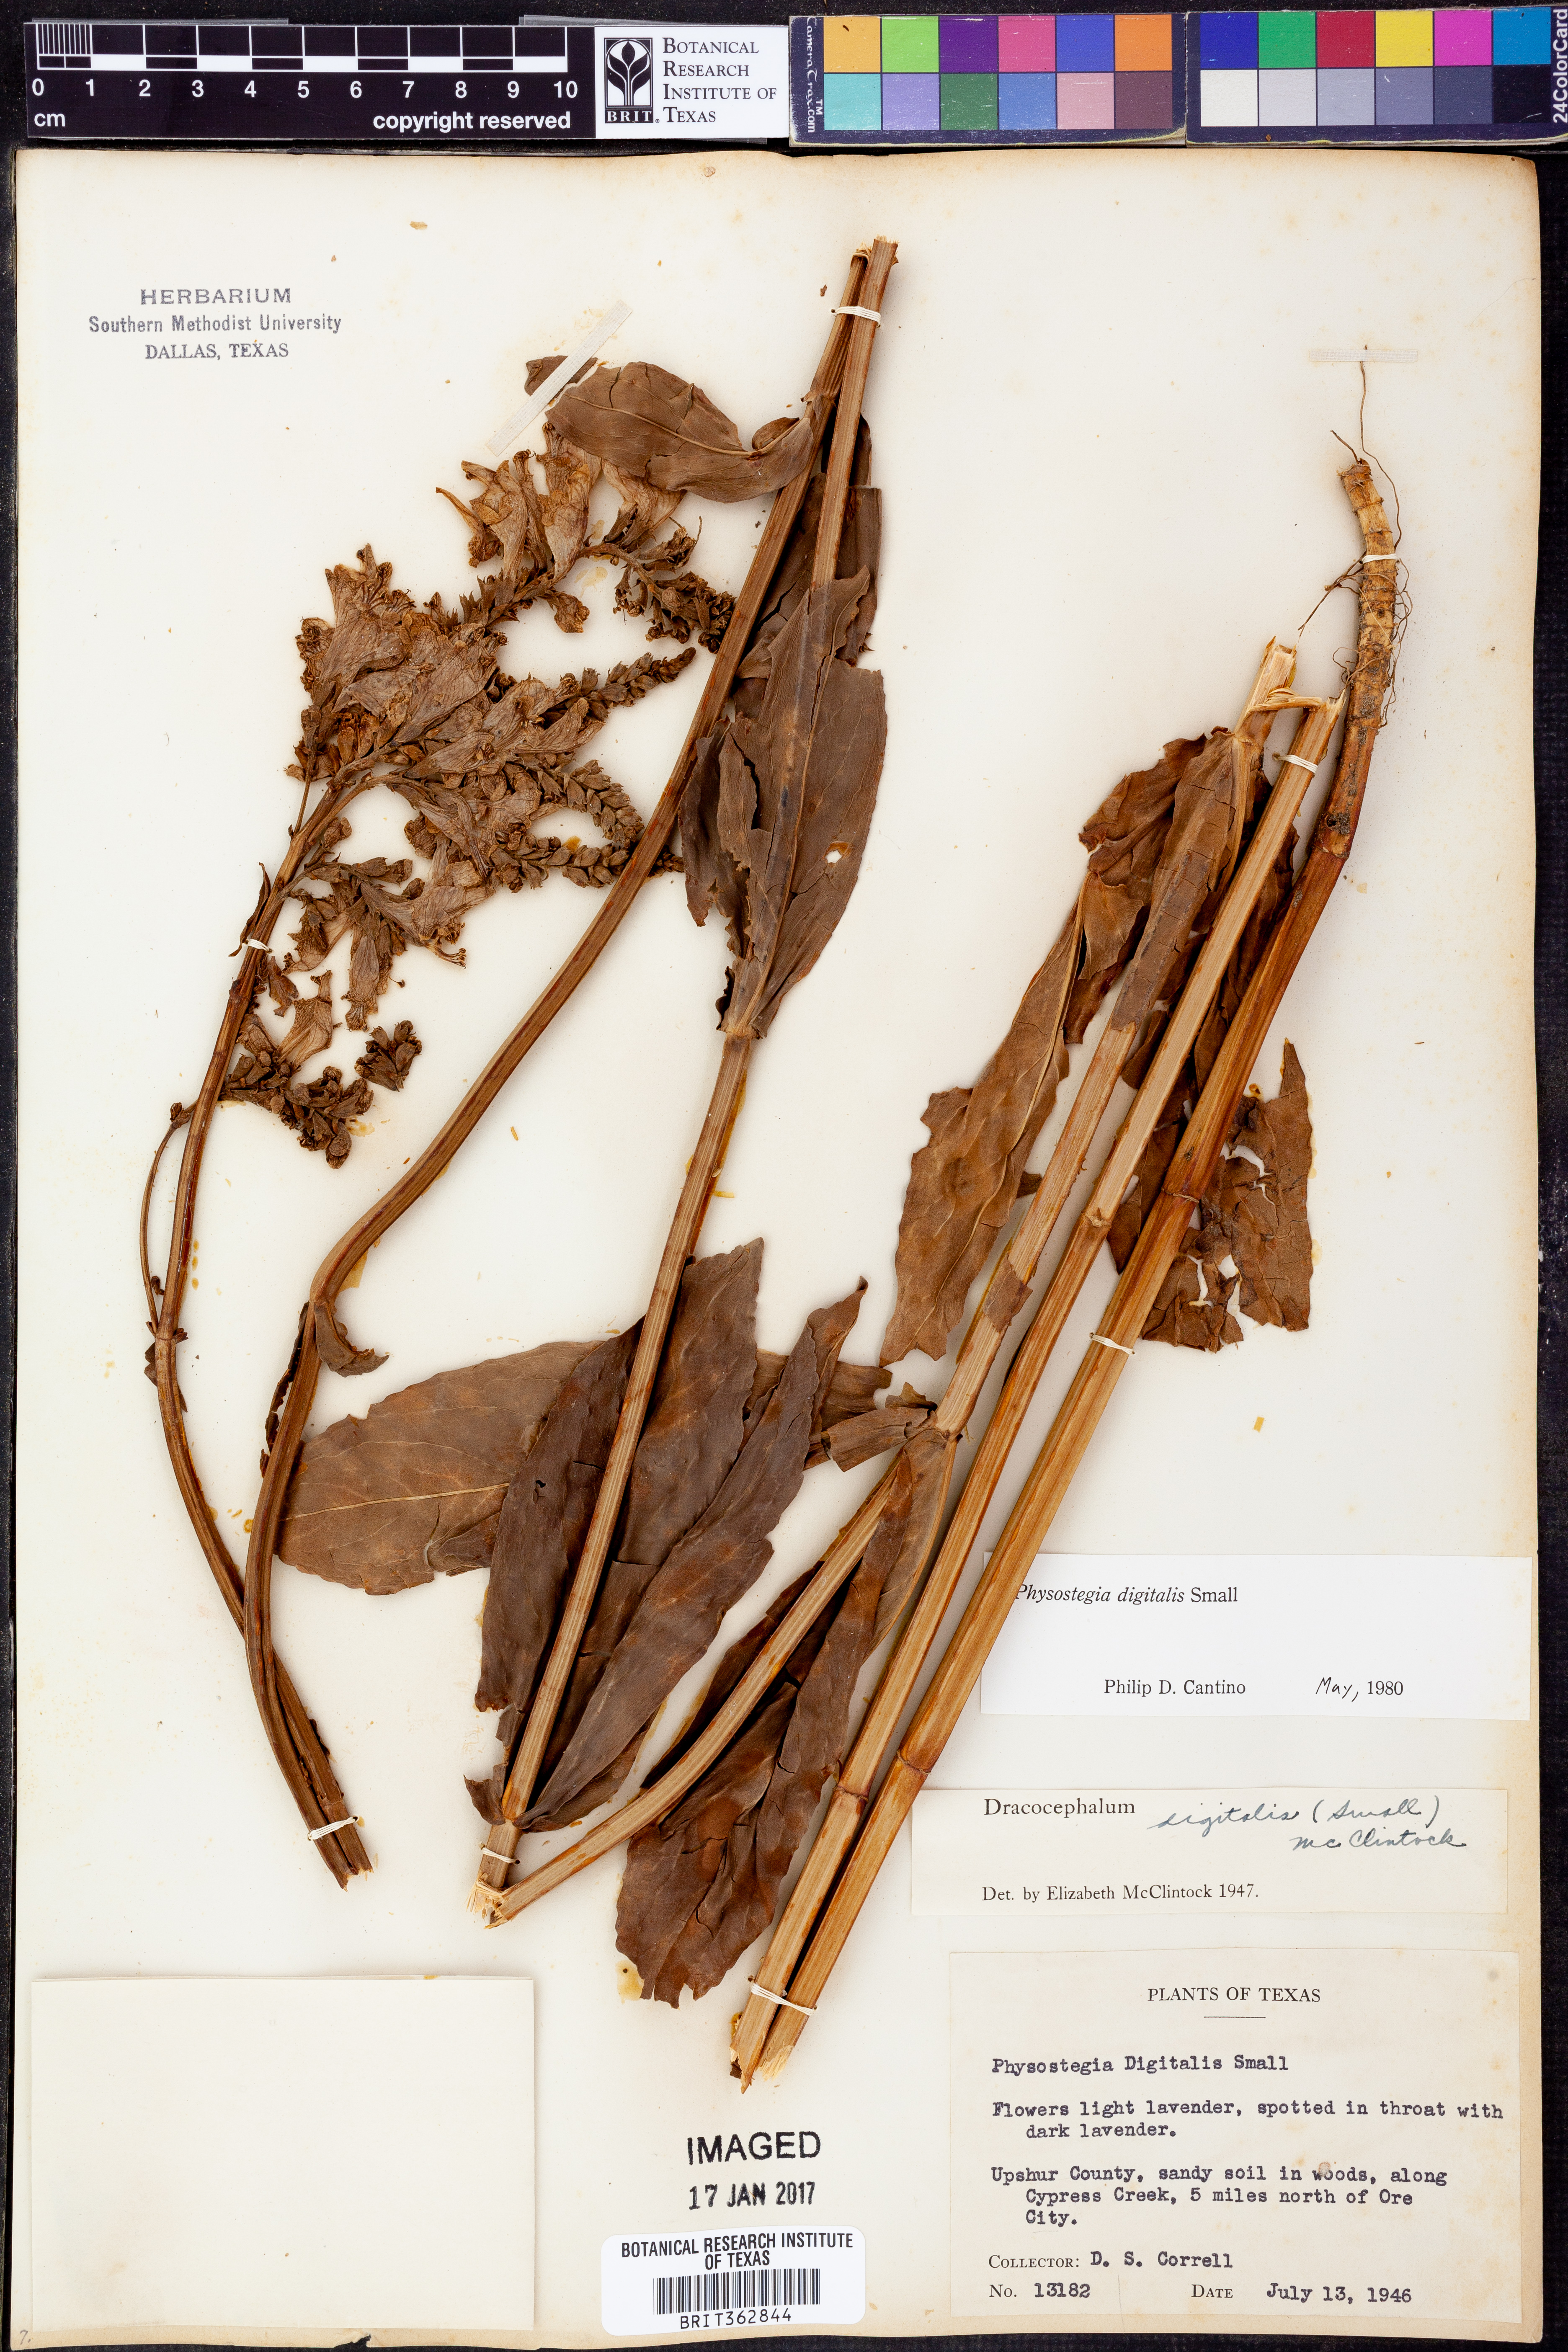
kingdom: Plantae
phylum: Tracheophyta
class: Magnoliopsida
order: Lamiales
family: Lamiaceae
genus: Physostegia
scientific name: Physostegia digitalis
